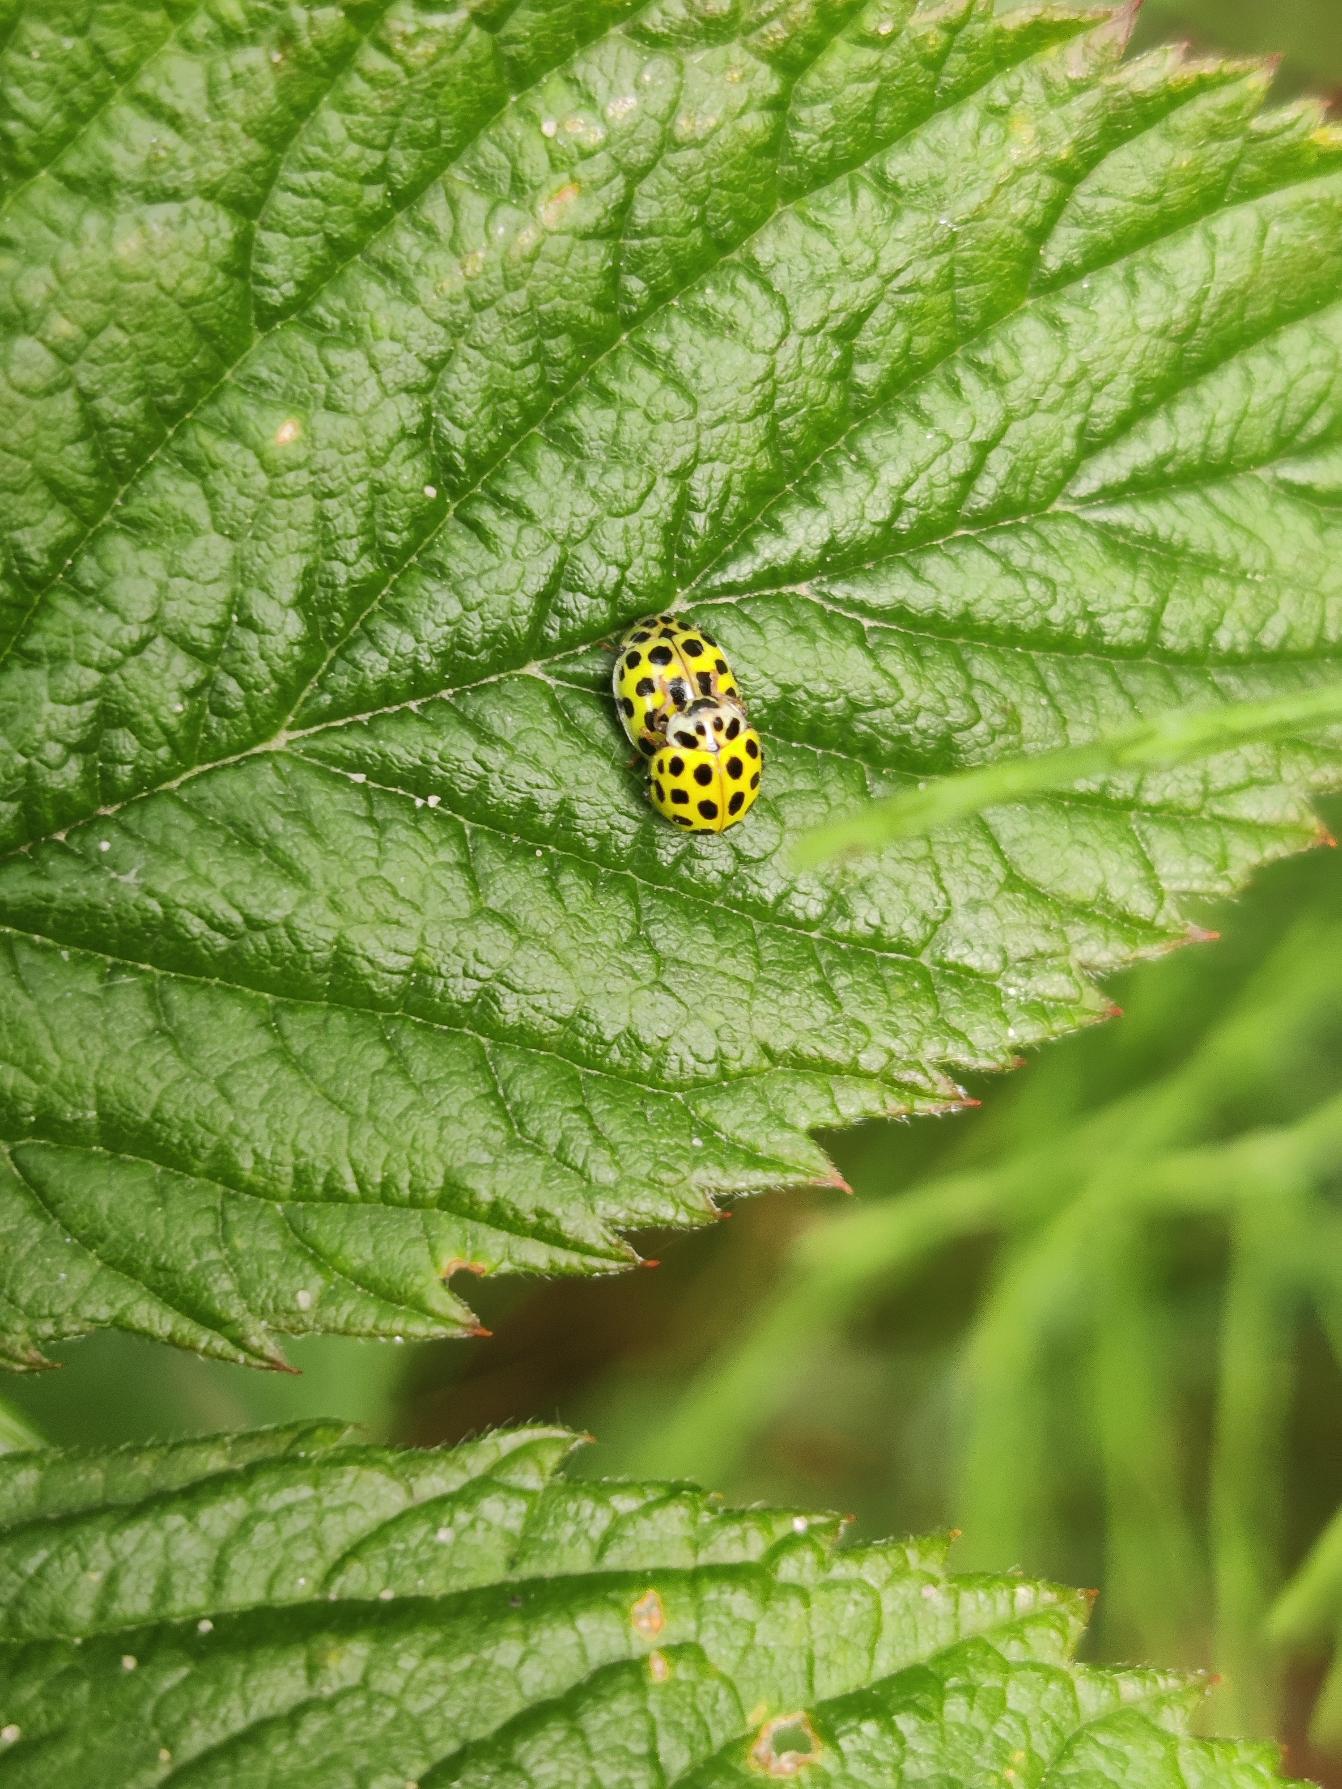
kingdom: Animalia
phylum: Arthropoda
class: Insecta
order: Coleoptera
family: Coccinellidae
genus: Psyllobora
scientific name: Psyllobora vigintiduopunctata
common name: Toogtyveplettet mariehøne
